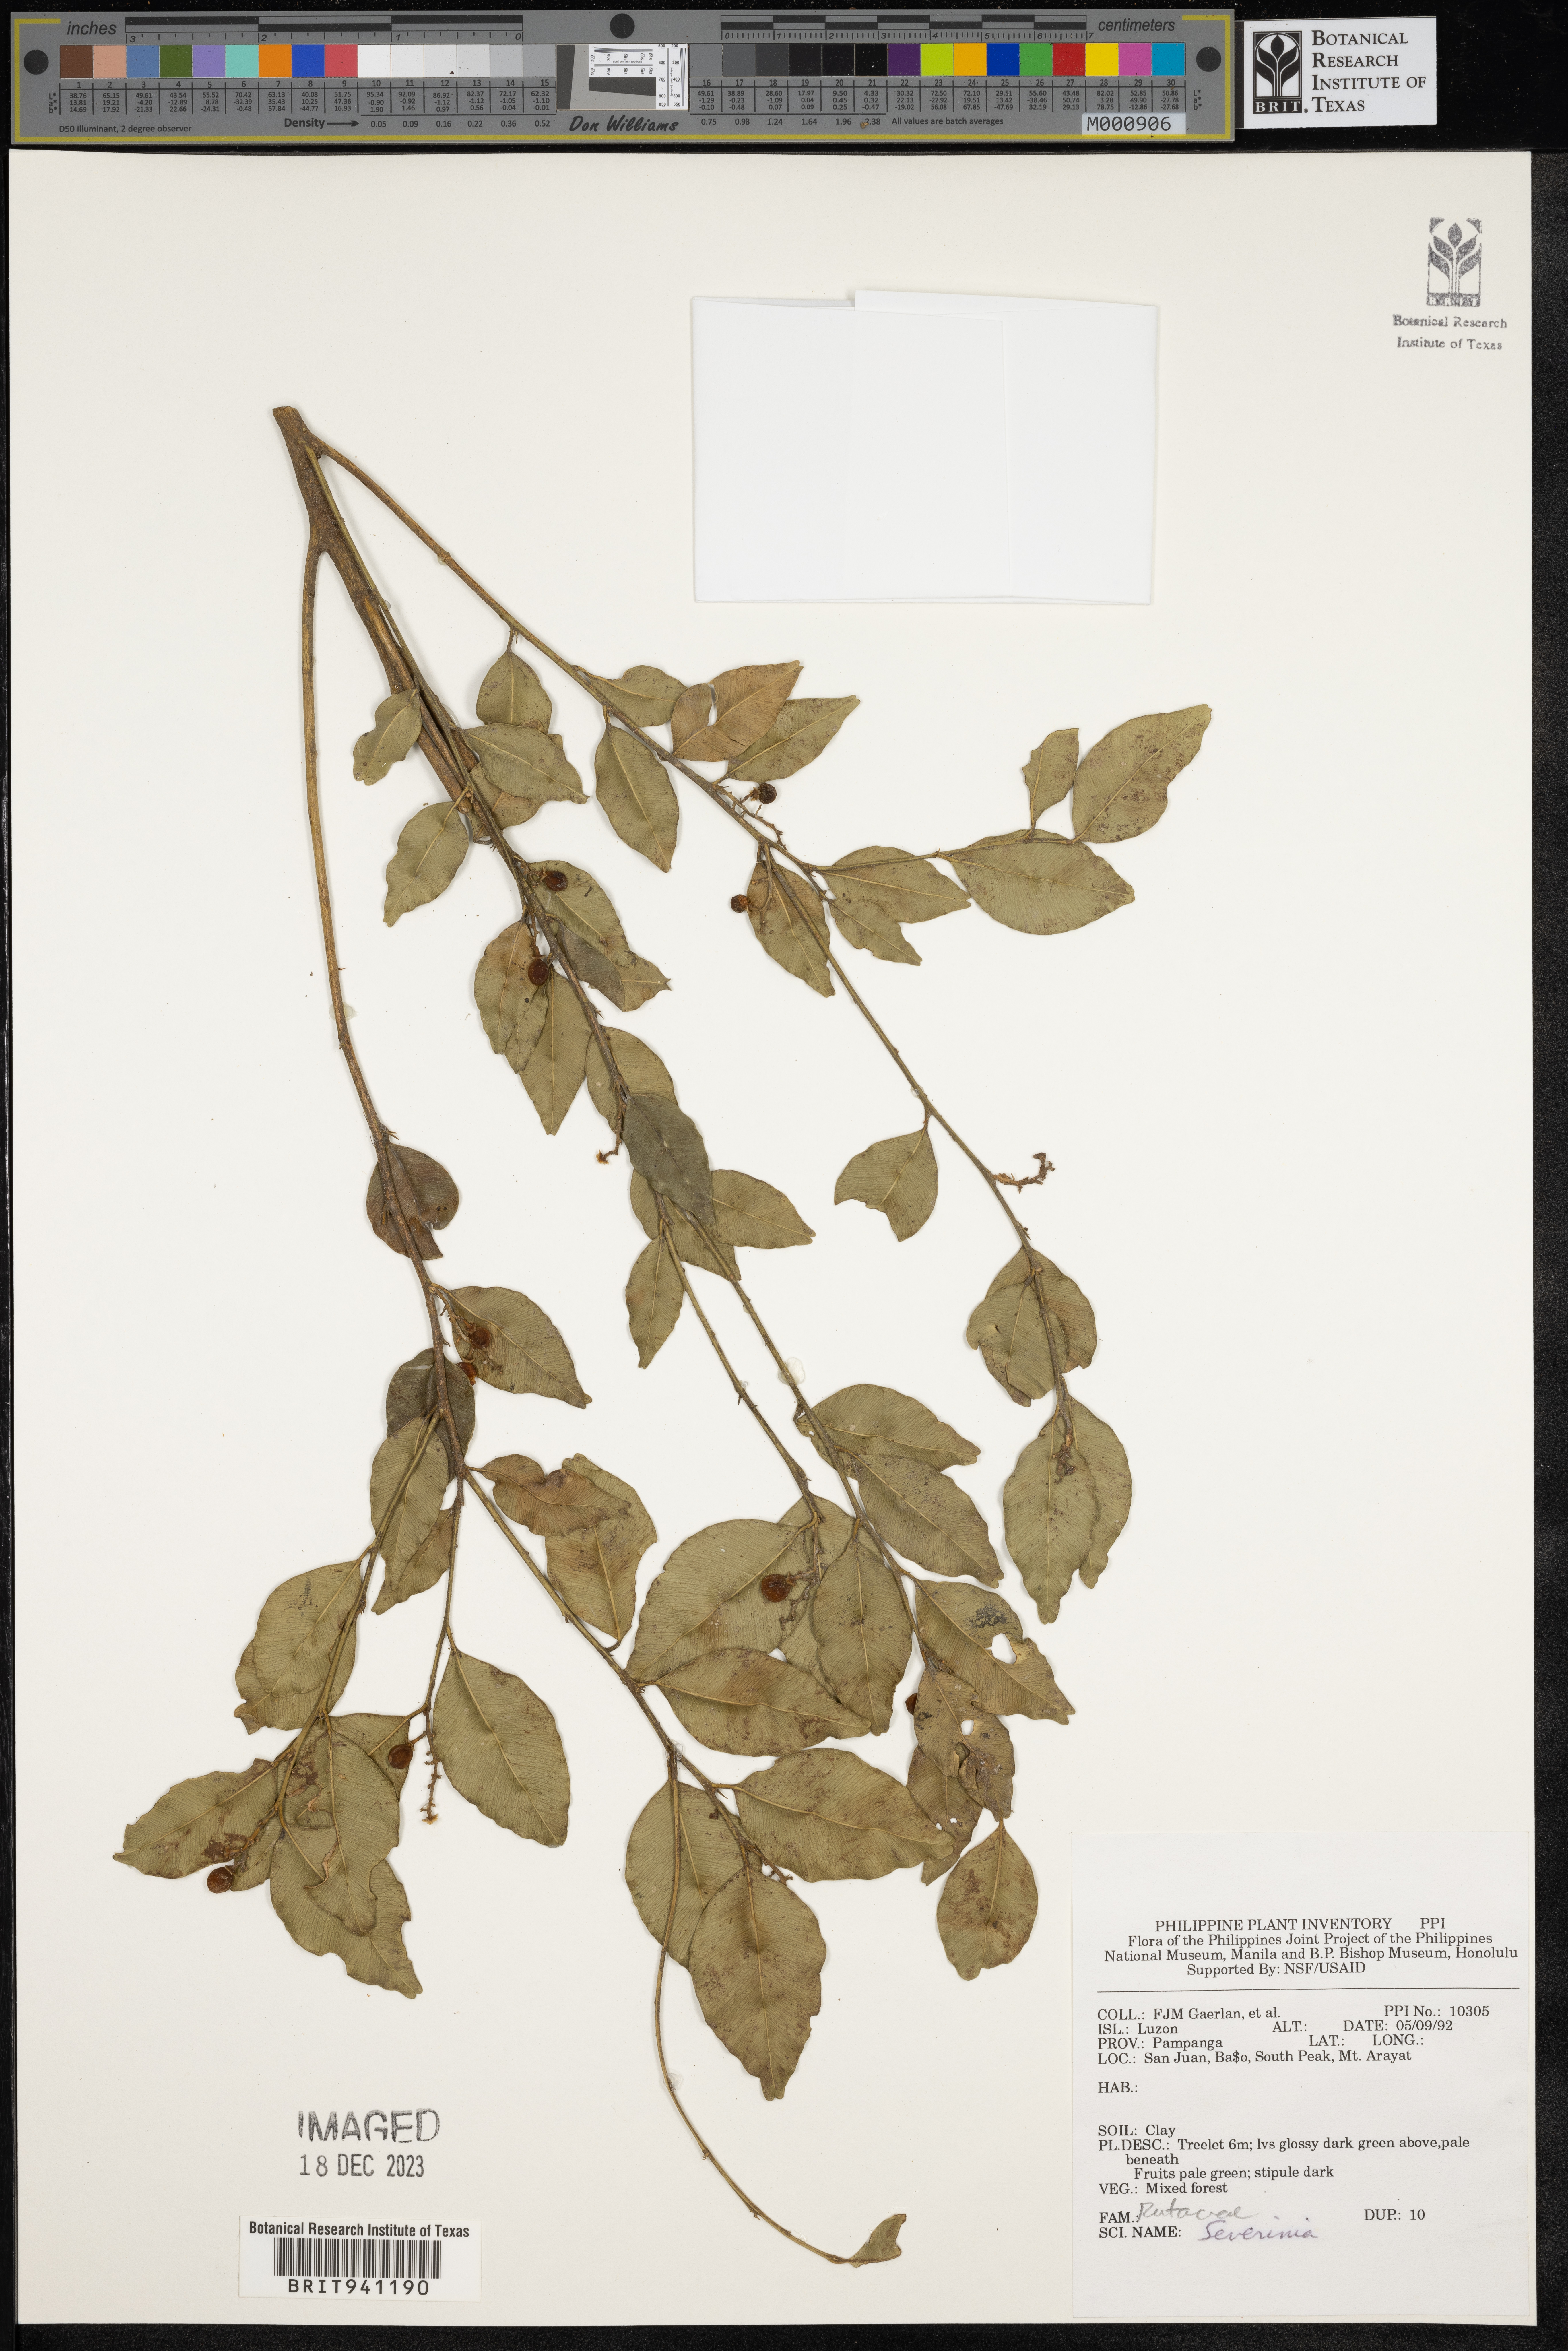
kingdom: Animalia
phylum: Arthropoda
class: Insecta
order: Mantodea
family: Toxoderidae
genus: Severinia
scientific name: Severinia
